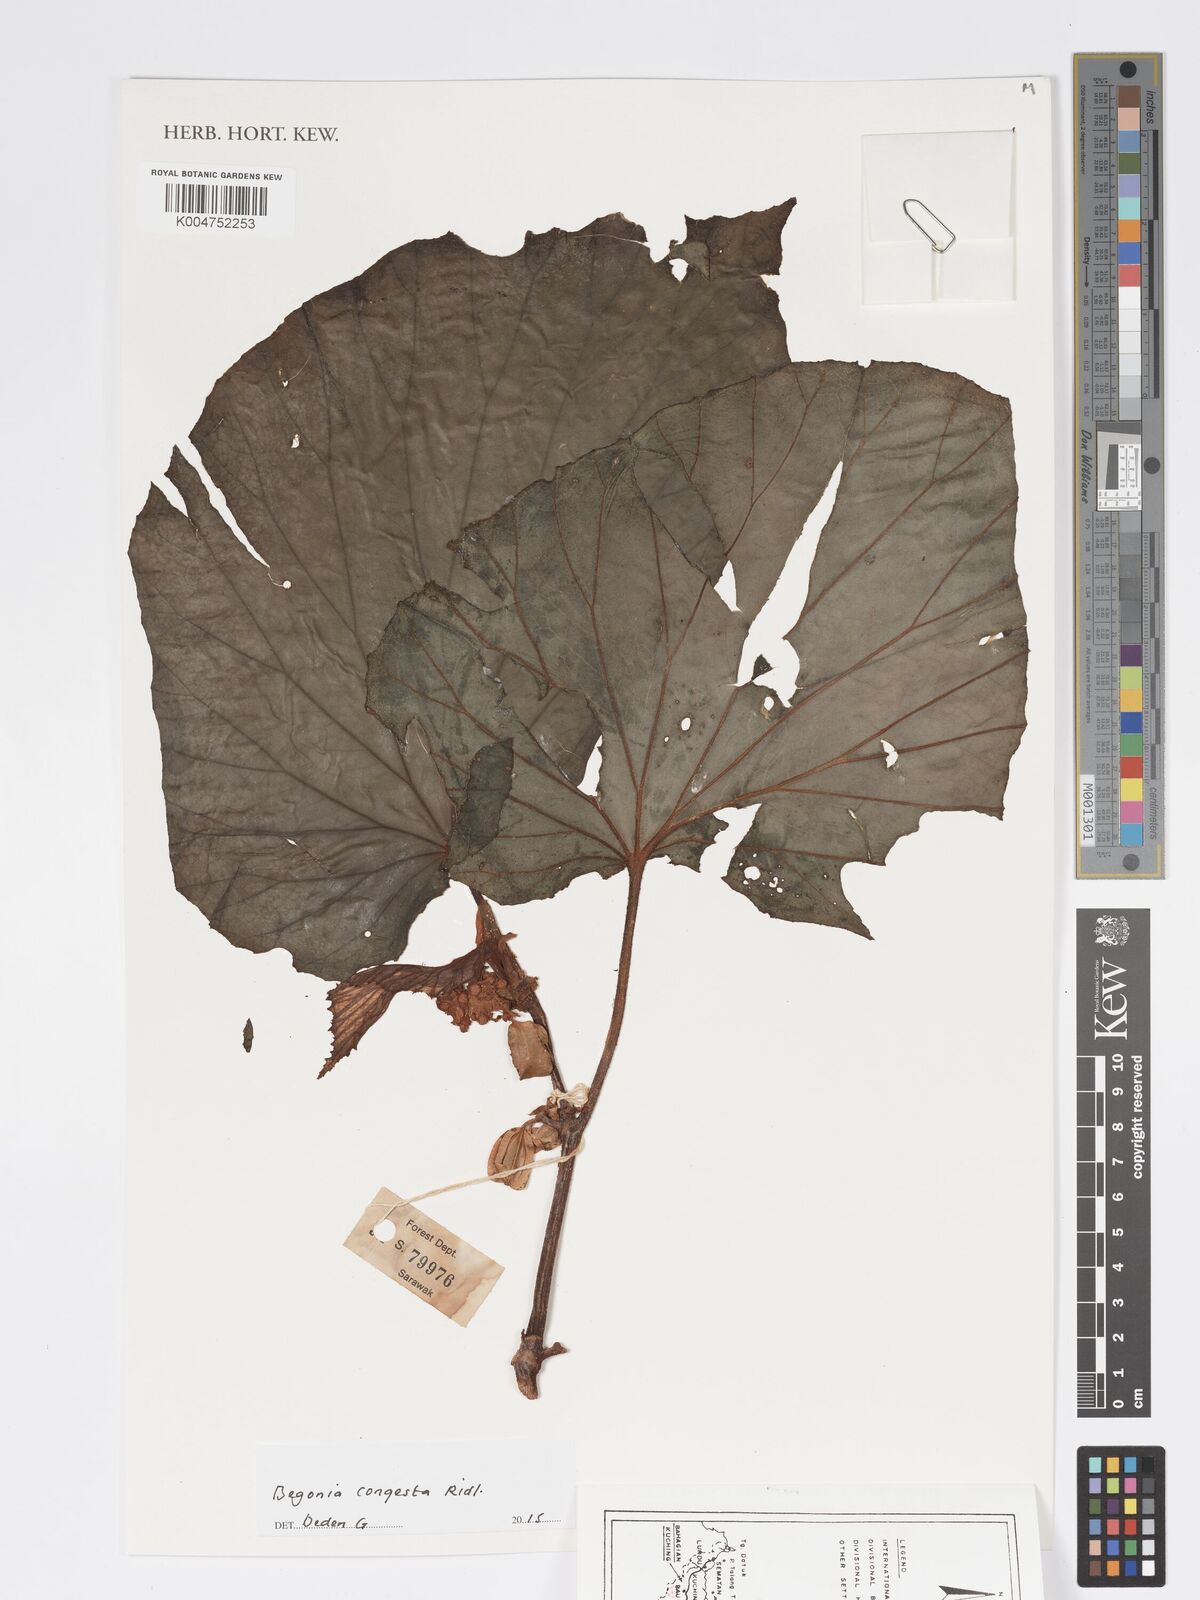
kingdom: Plantae
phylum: Tracheophyta
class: Magnoliopsida
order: Cucurbitales
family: Begoniaceae
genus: Begonia
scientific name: Begonia congesta
